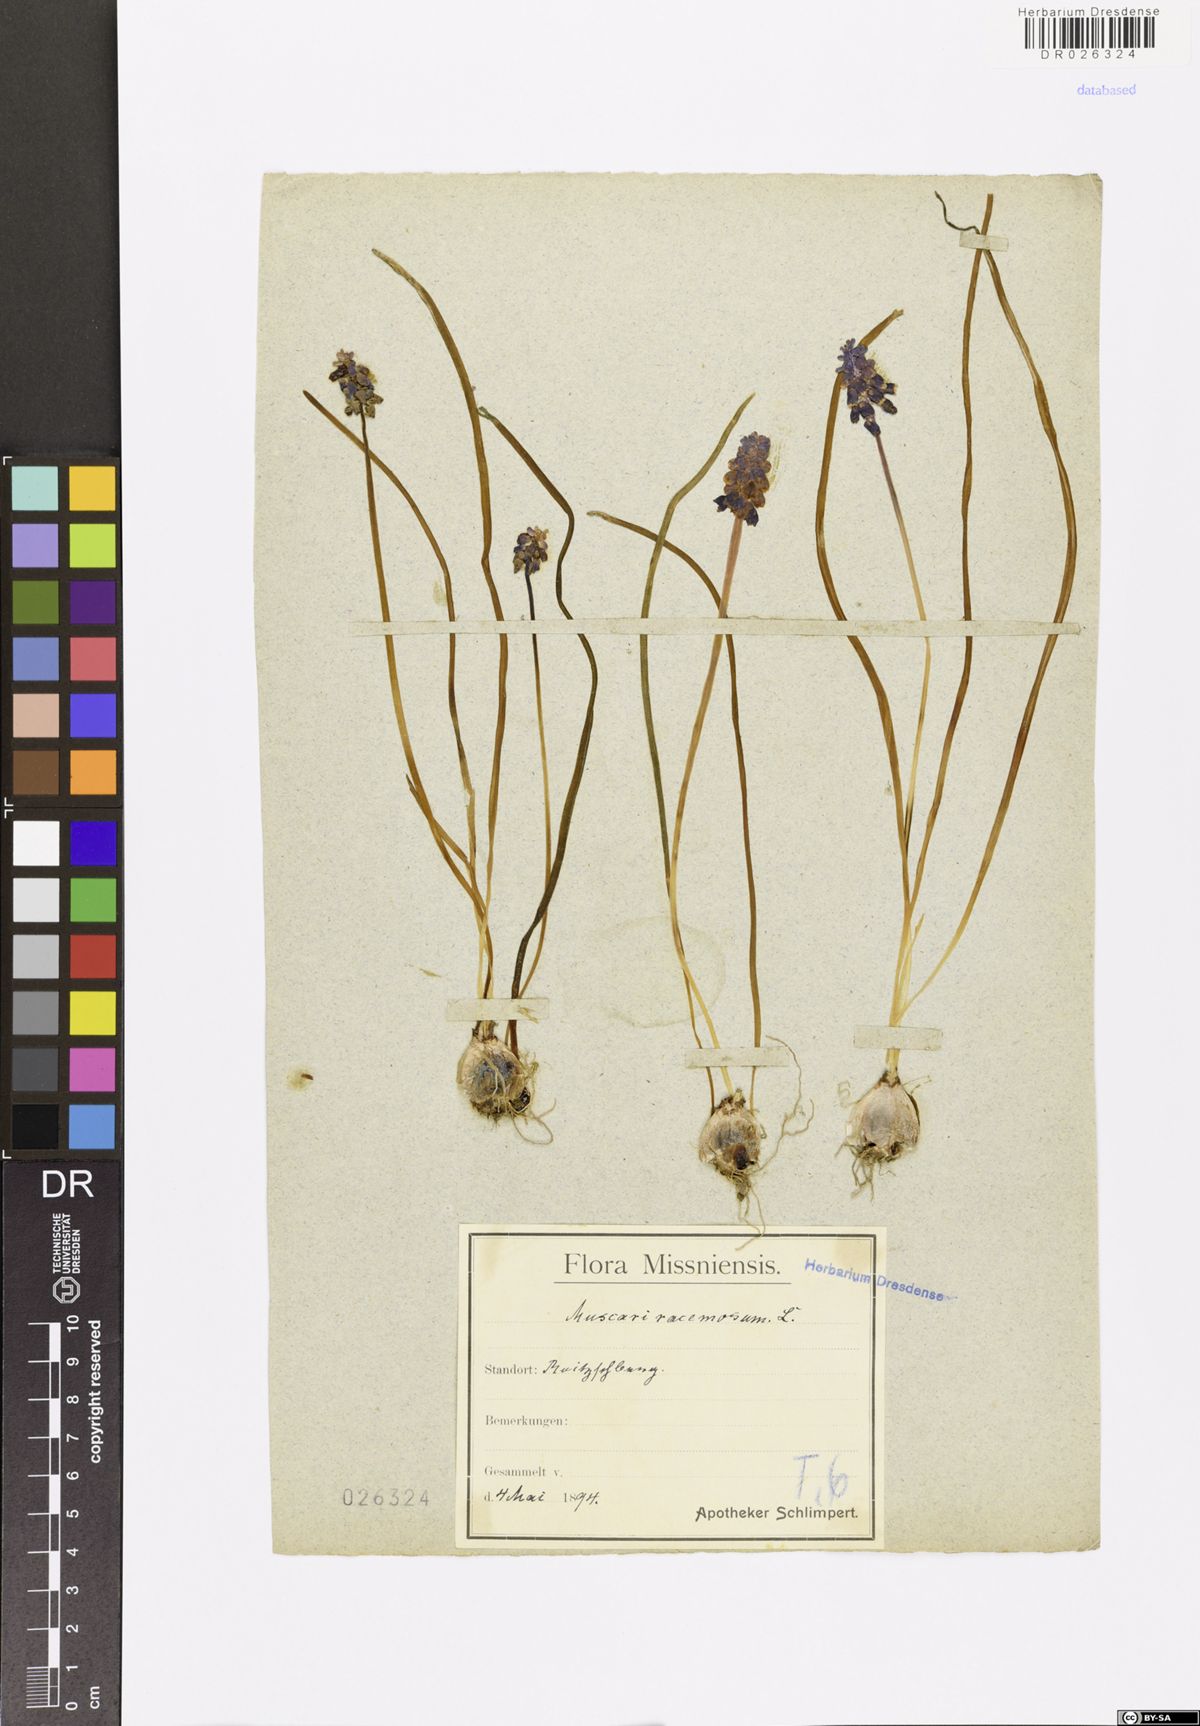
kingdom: Plantae
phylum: Tracheophyta
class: Liliopsida
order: Asparagales
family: Asparagaceae
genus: Muscari
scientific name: Muscari neglectum
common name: Grape-hyacinth
